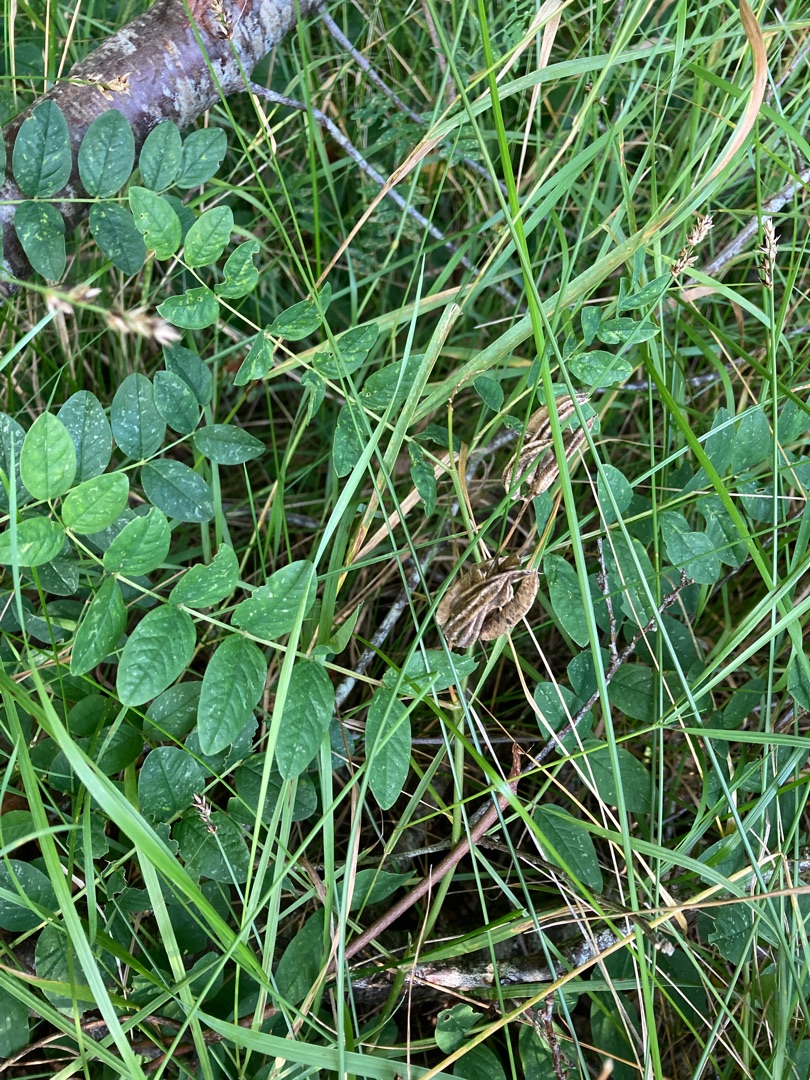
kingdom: Plantae
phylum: Tracheophyta
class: Magnoliopsida
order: Fabales
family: Fabaceae
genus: Astragalus
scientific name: Astragalus glycyphyllos
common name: Sød astragel
